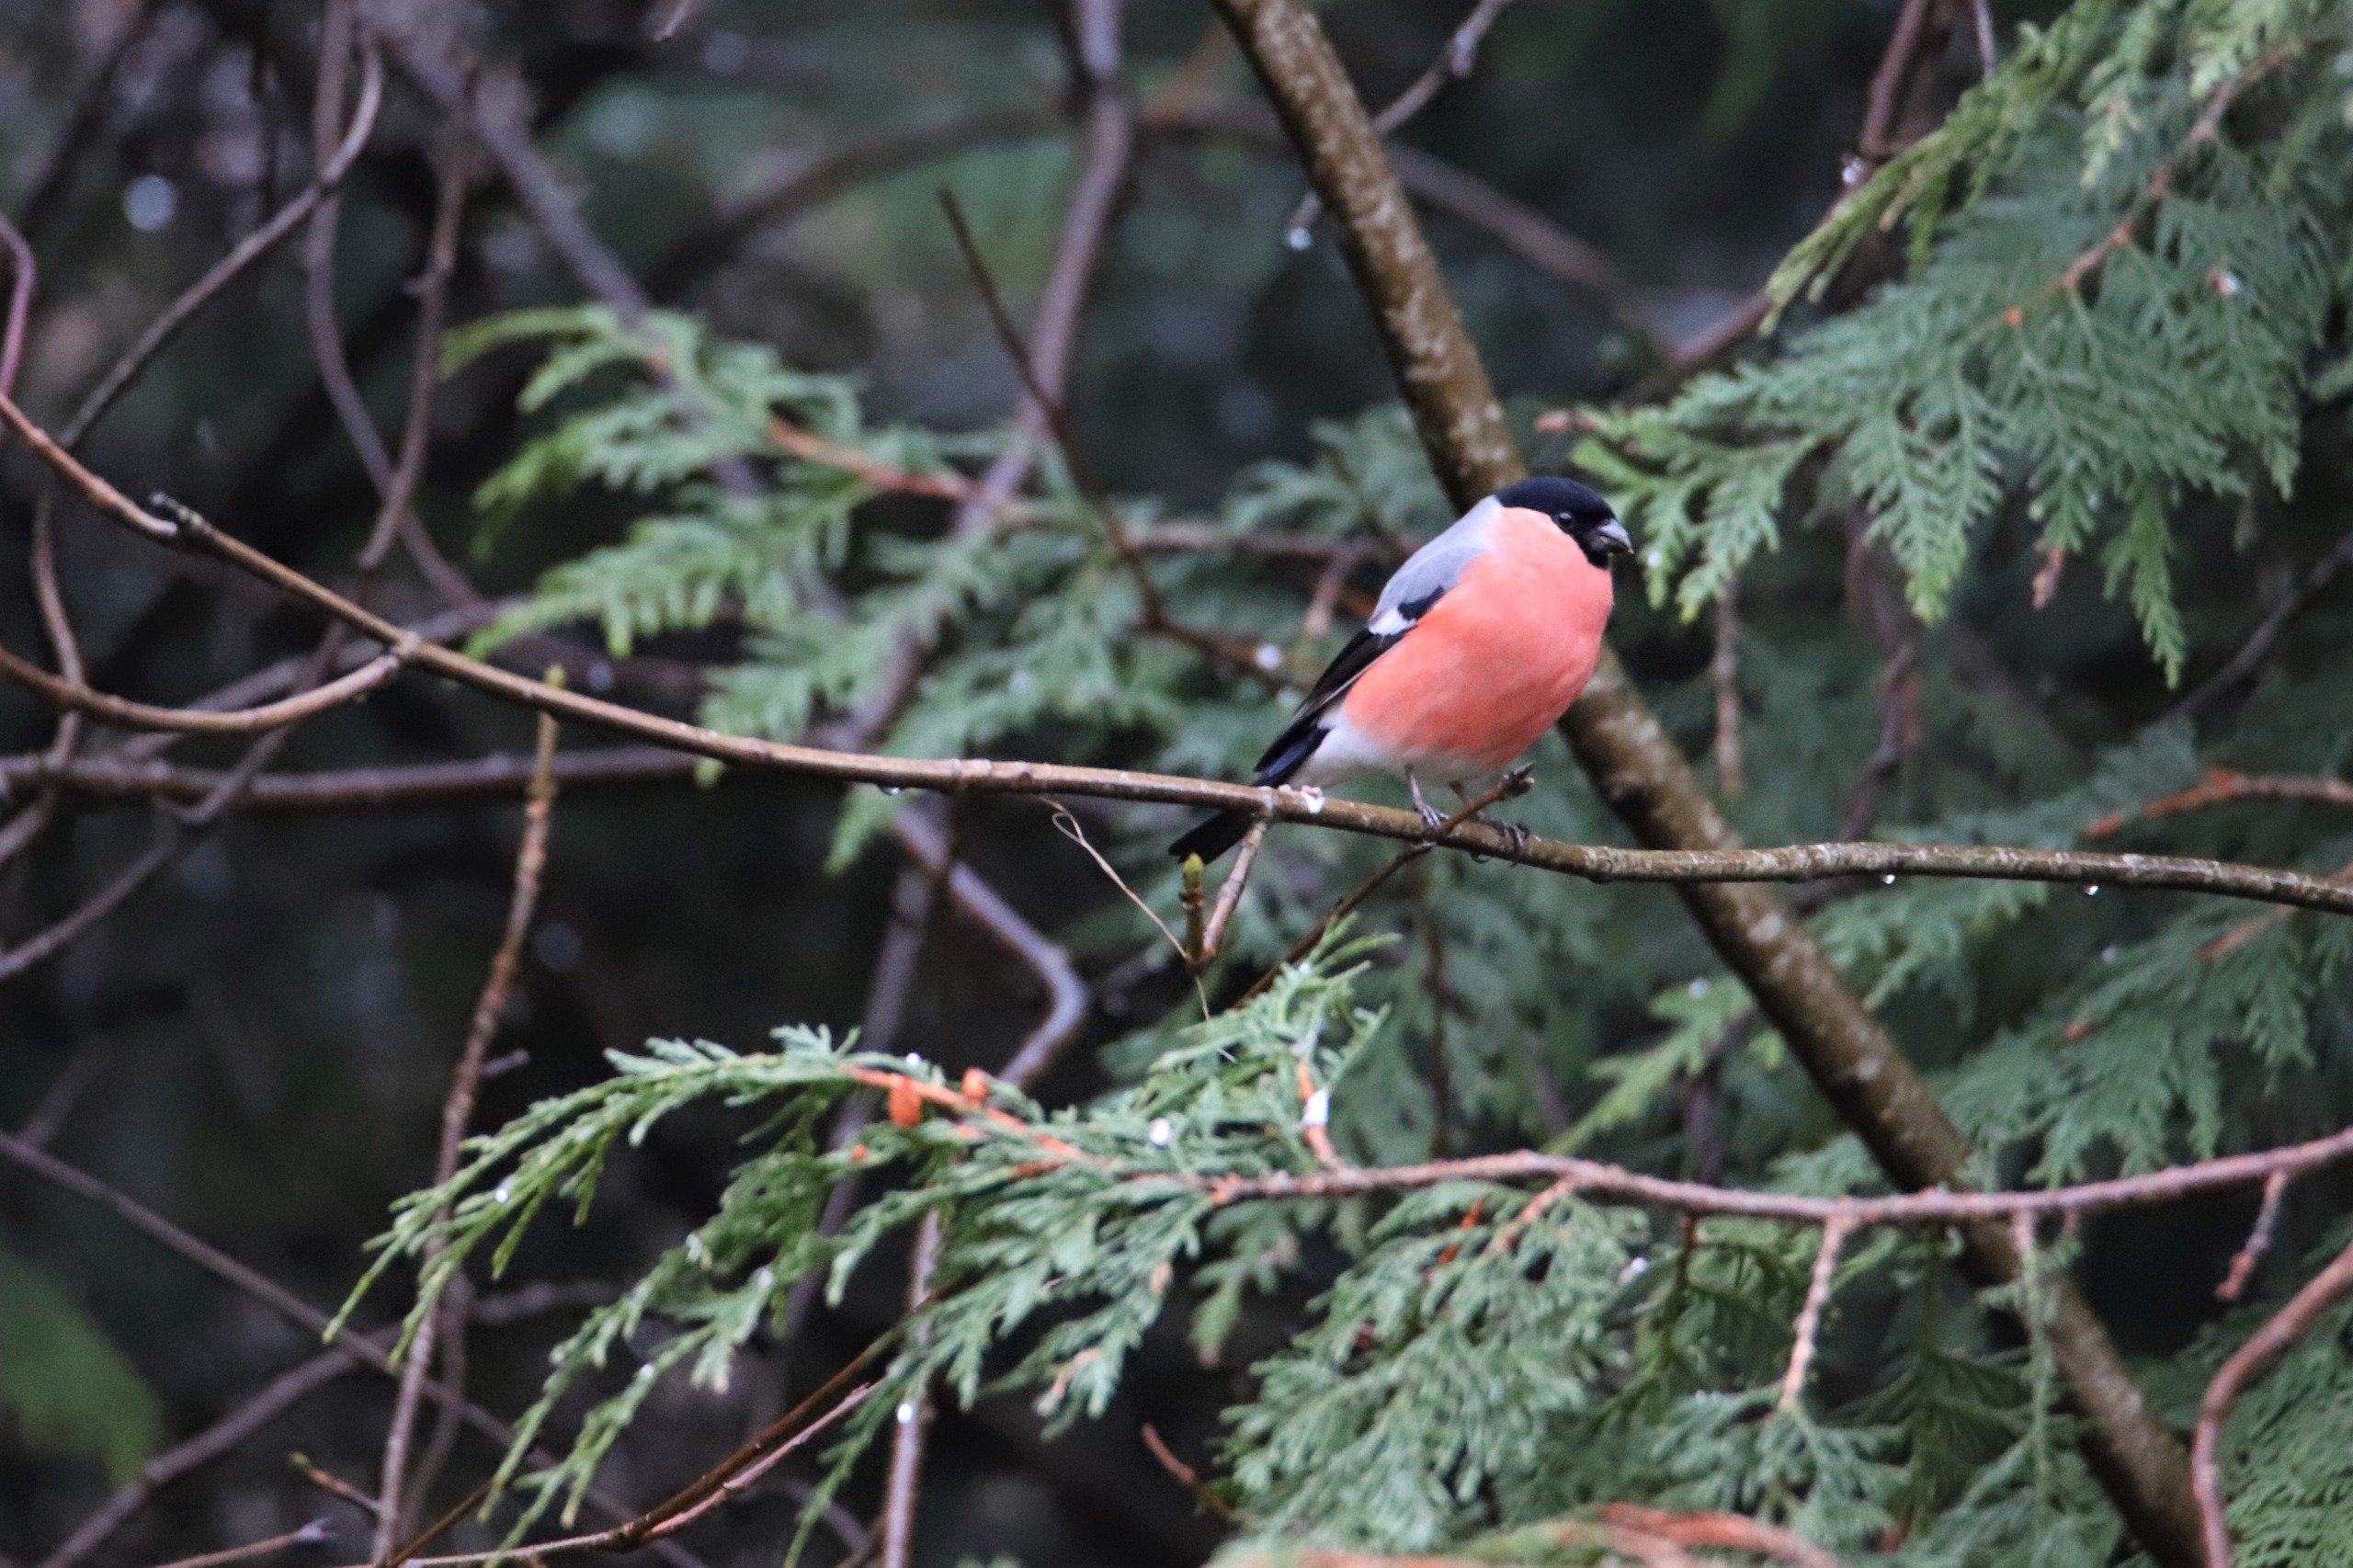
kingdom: Animalia
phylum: Chordata
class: Aves
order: Passeriformes
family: Fringillidae
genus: Pyrrhula
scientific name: Pyrrhula pyrrhula
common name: Dompap
